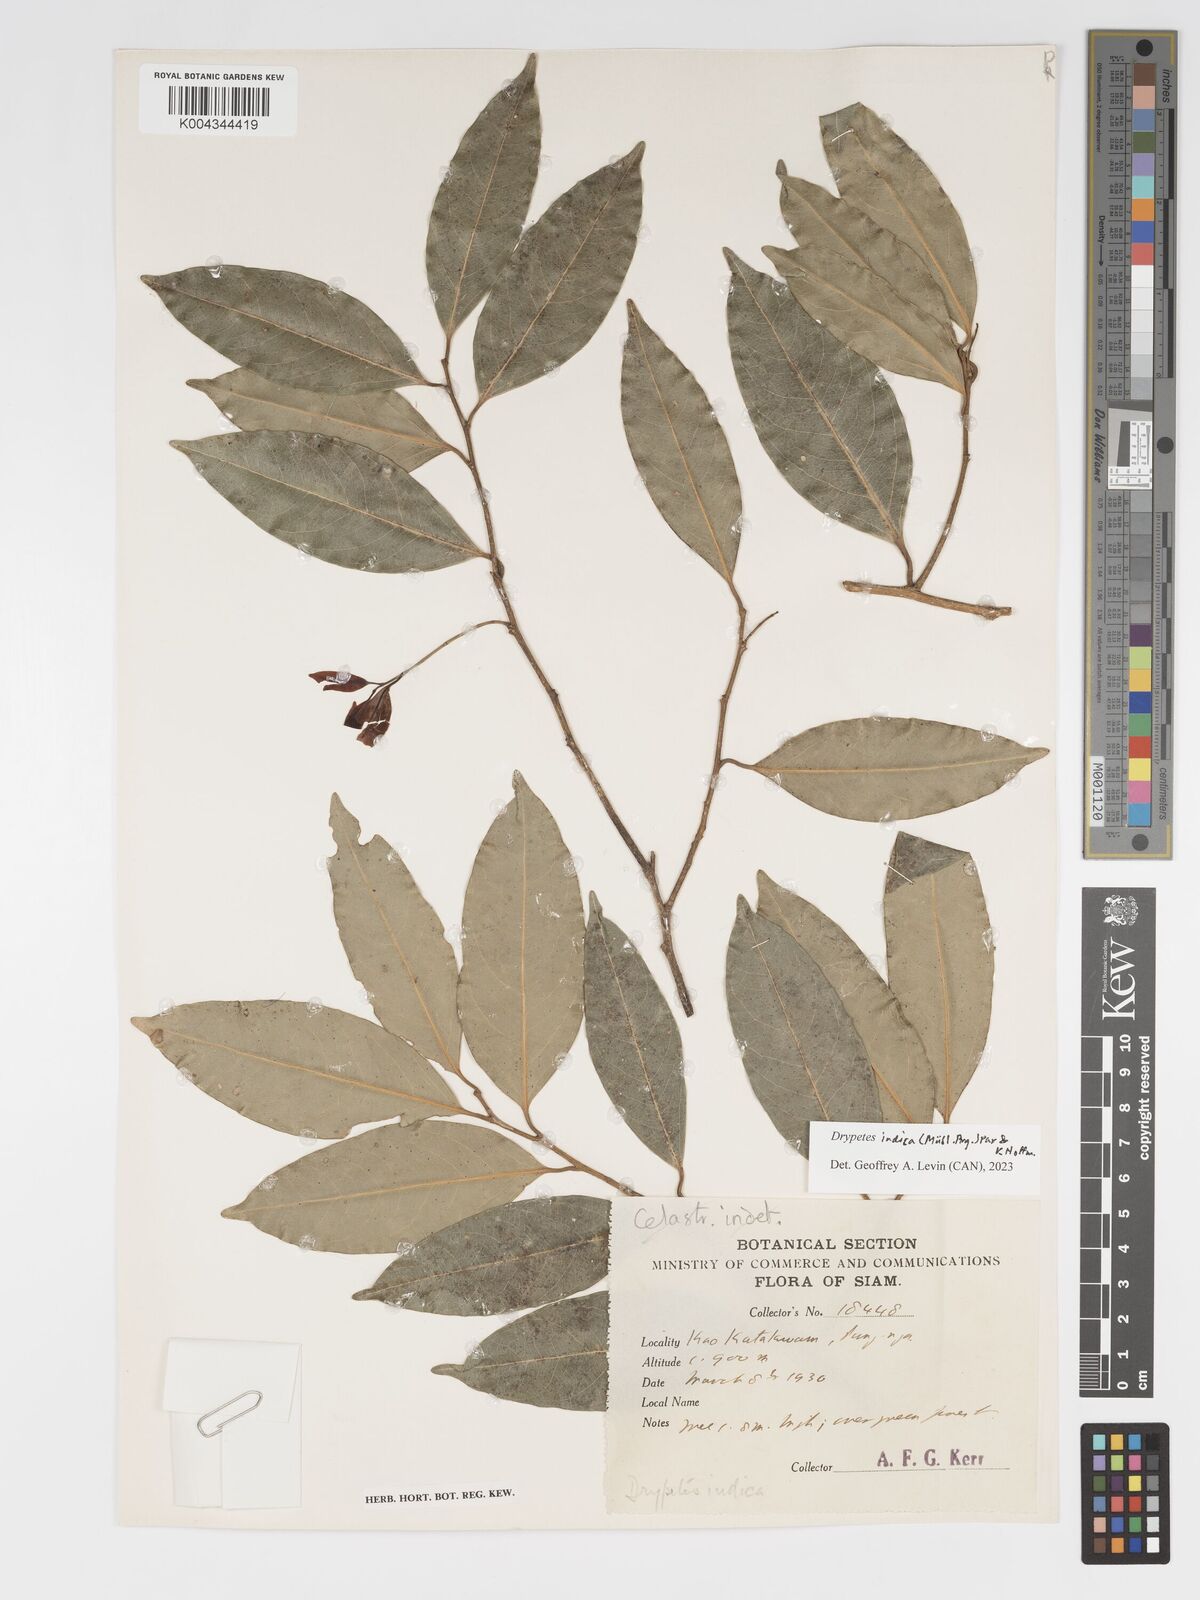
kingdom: Plantae
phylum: Tracheophyta
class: Magnoliopsida
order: Malpighiales
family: Putranjivaceae
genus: Drypetes
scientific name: Drypetes indica
